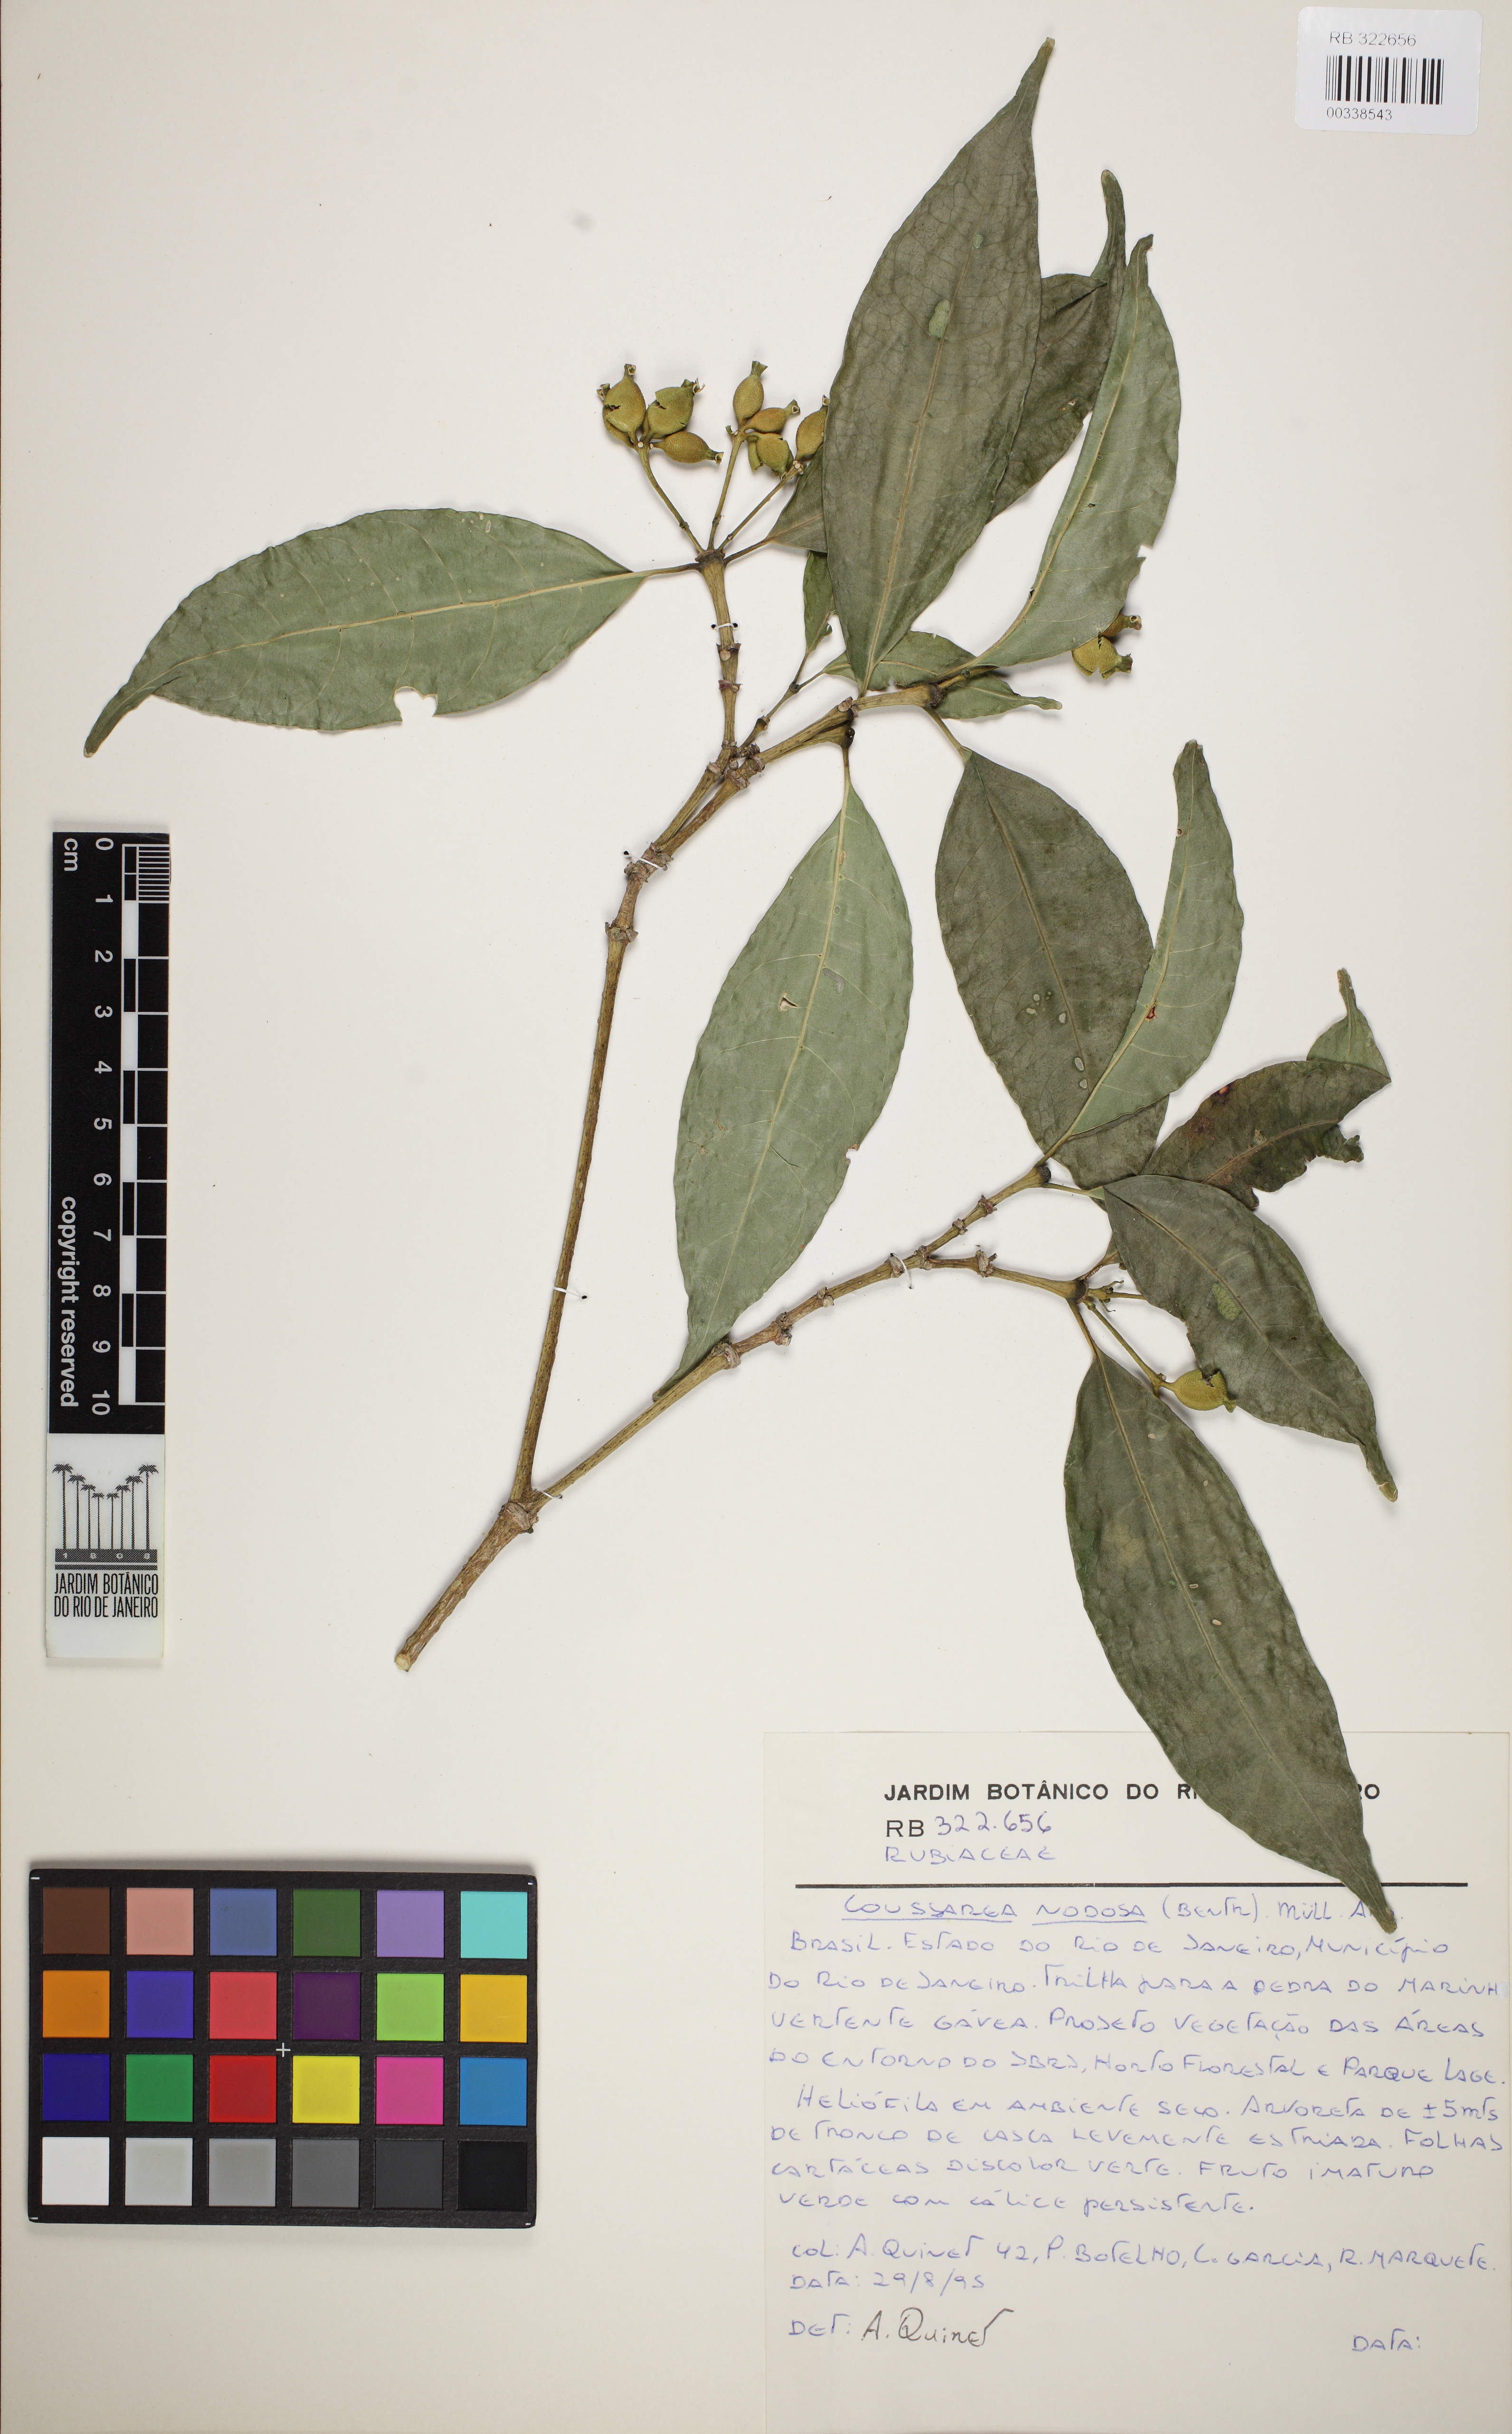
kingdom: Plantae
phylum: Tracheophyta
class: Magnoliopsida
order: Gentianales
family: Rubiaceae
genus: Coussarea
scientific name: Coussarea nodosa
